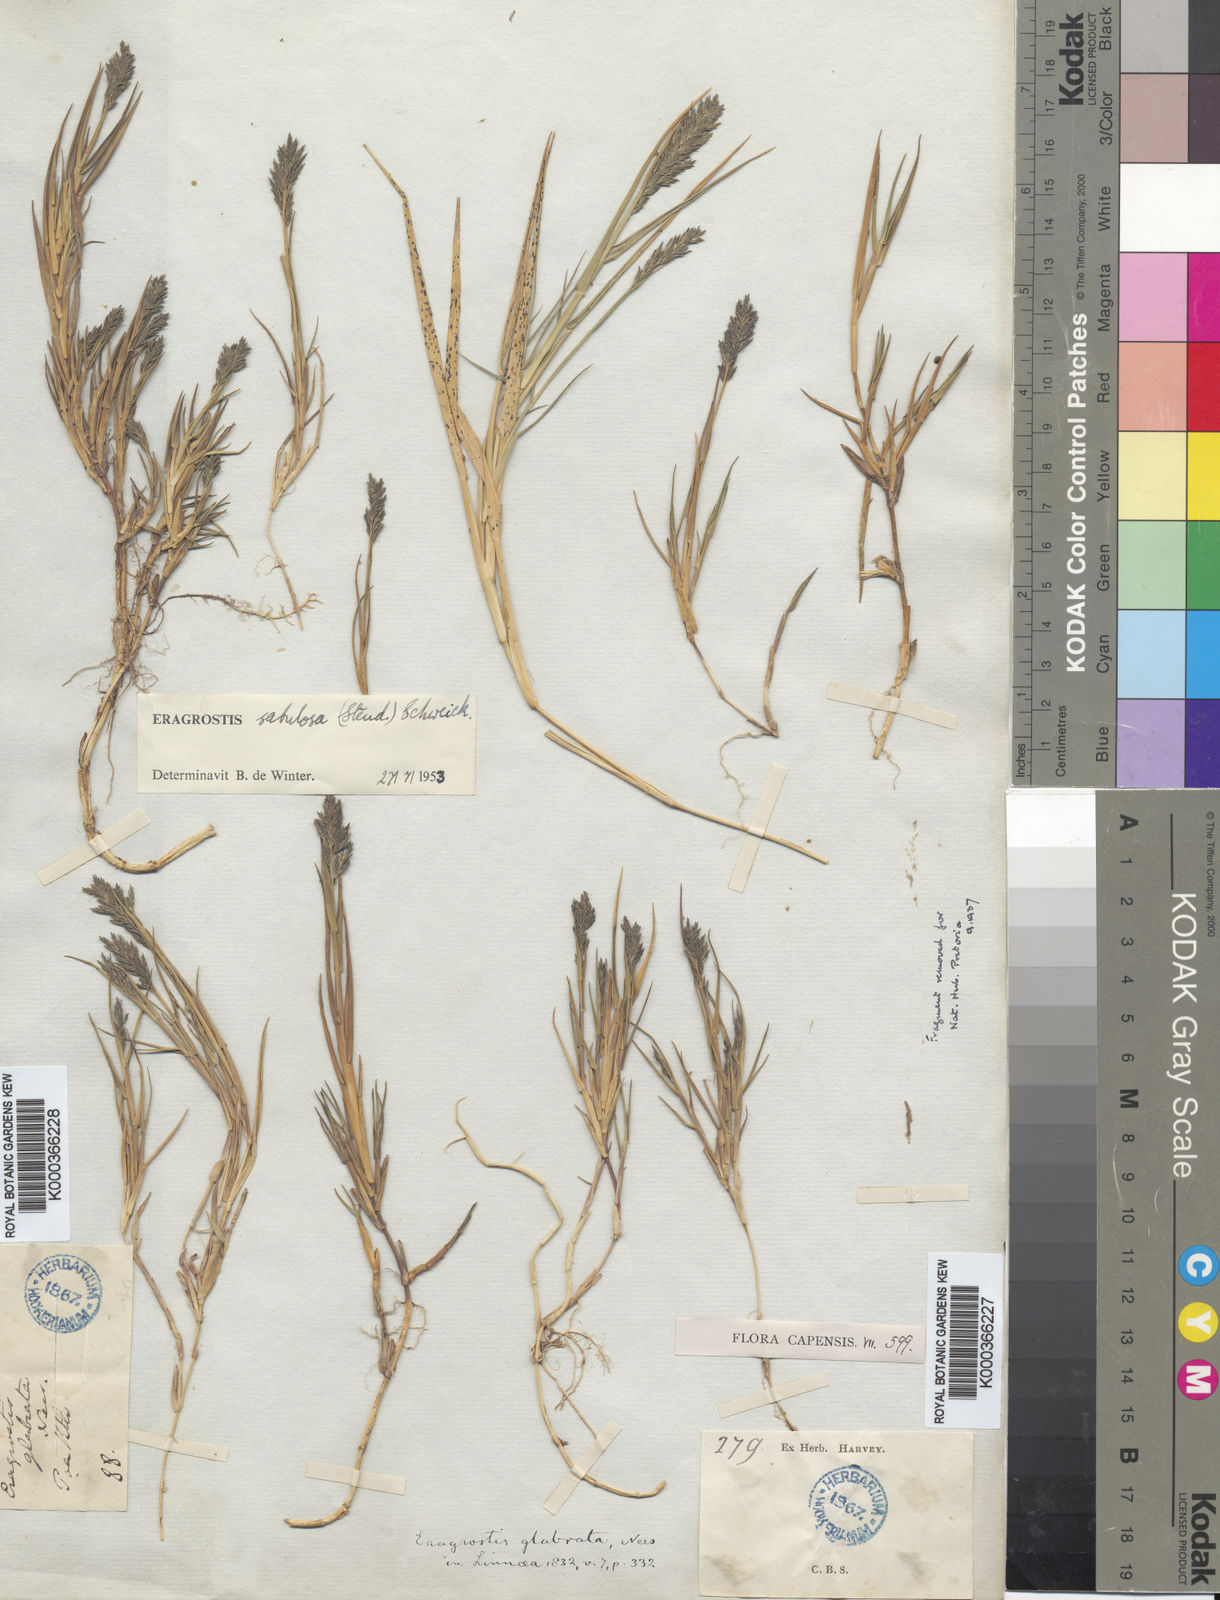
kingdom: Plantae
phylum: Tracheophyta
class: Liliopsida
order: Poales
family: Poaceae
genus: Eragrostis
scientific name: Eragrostis sabulosa
